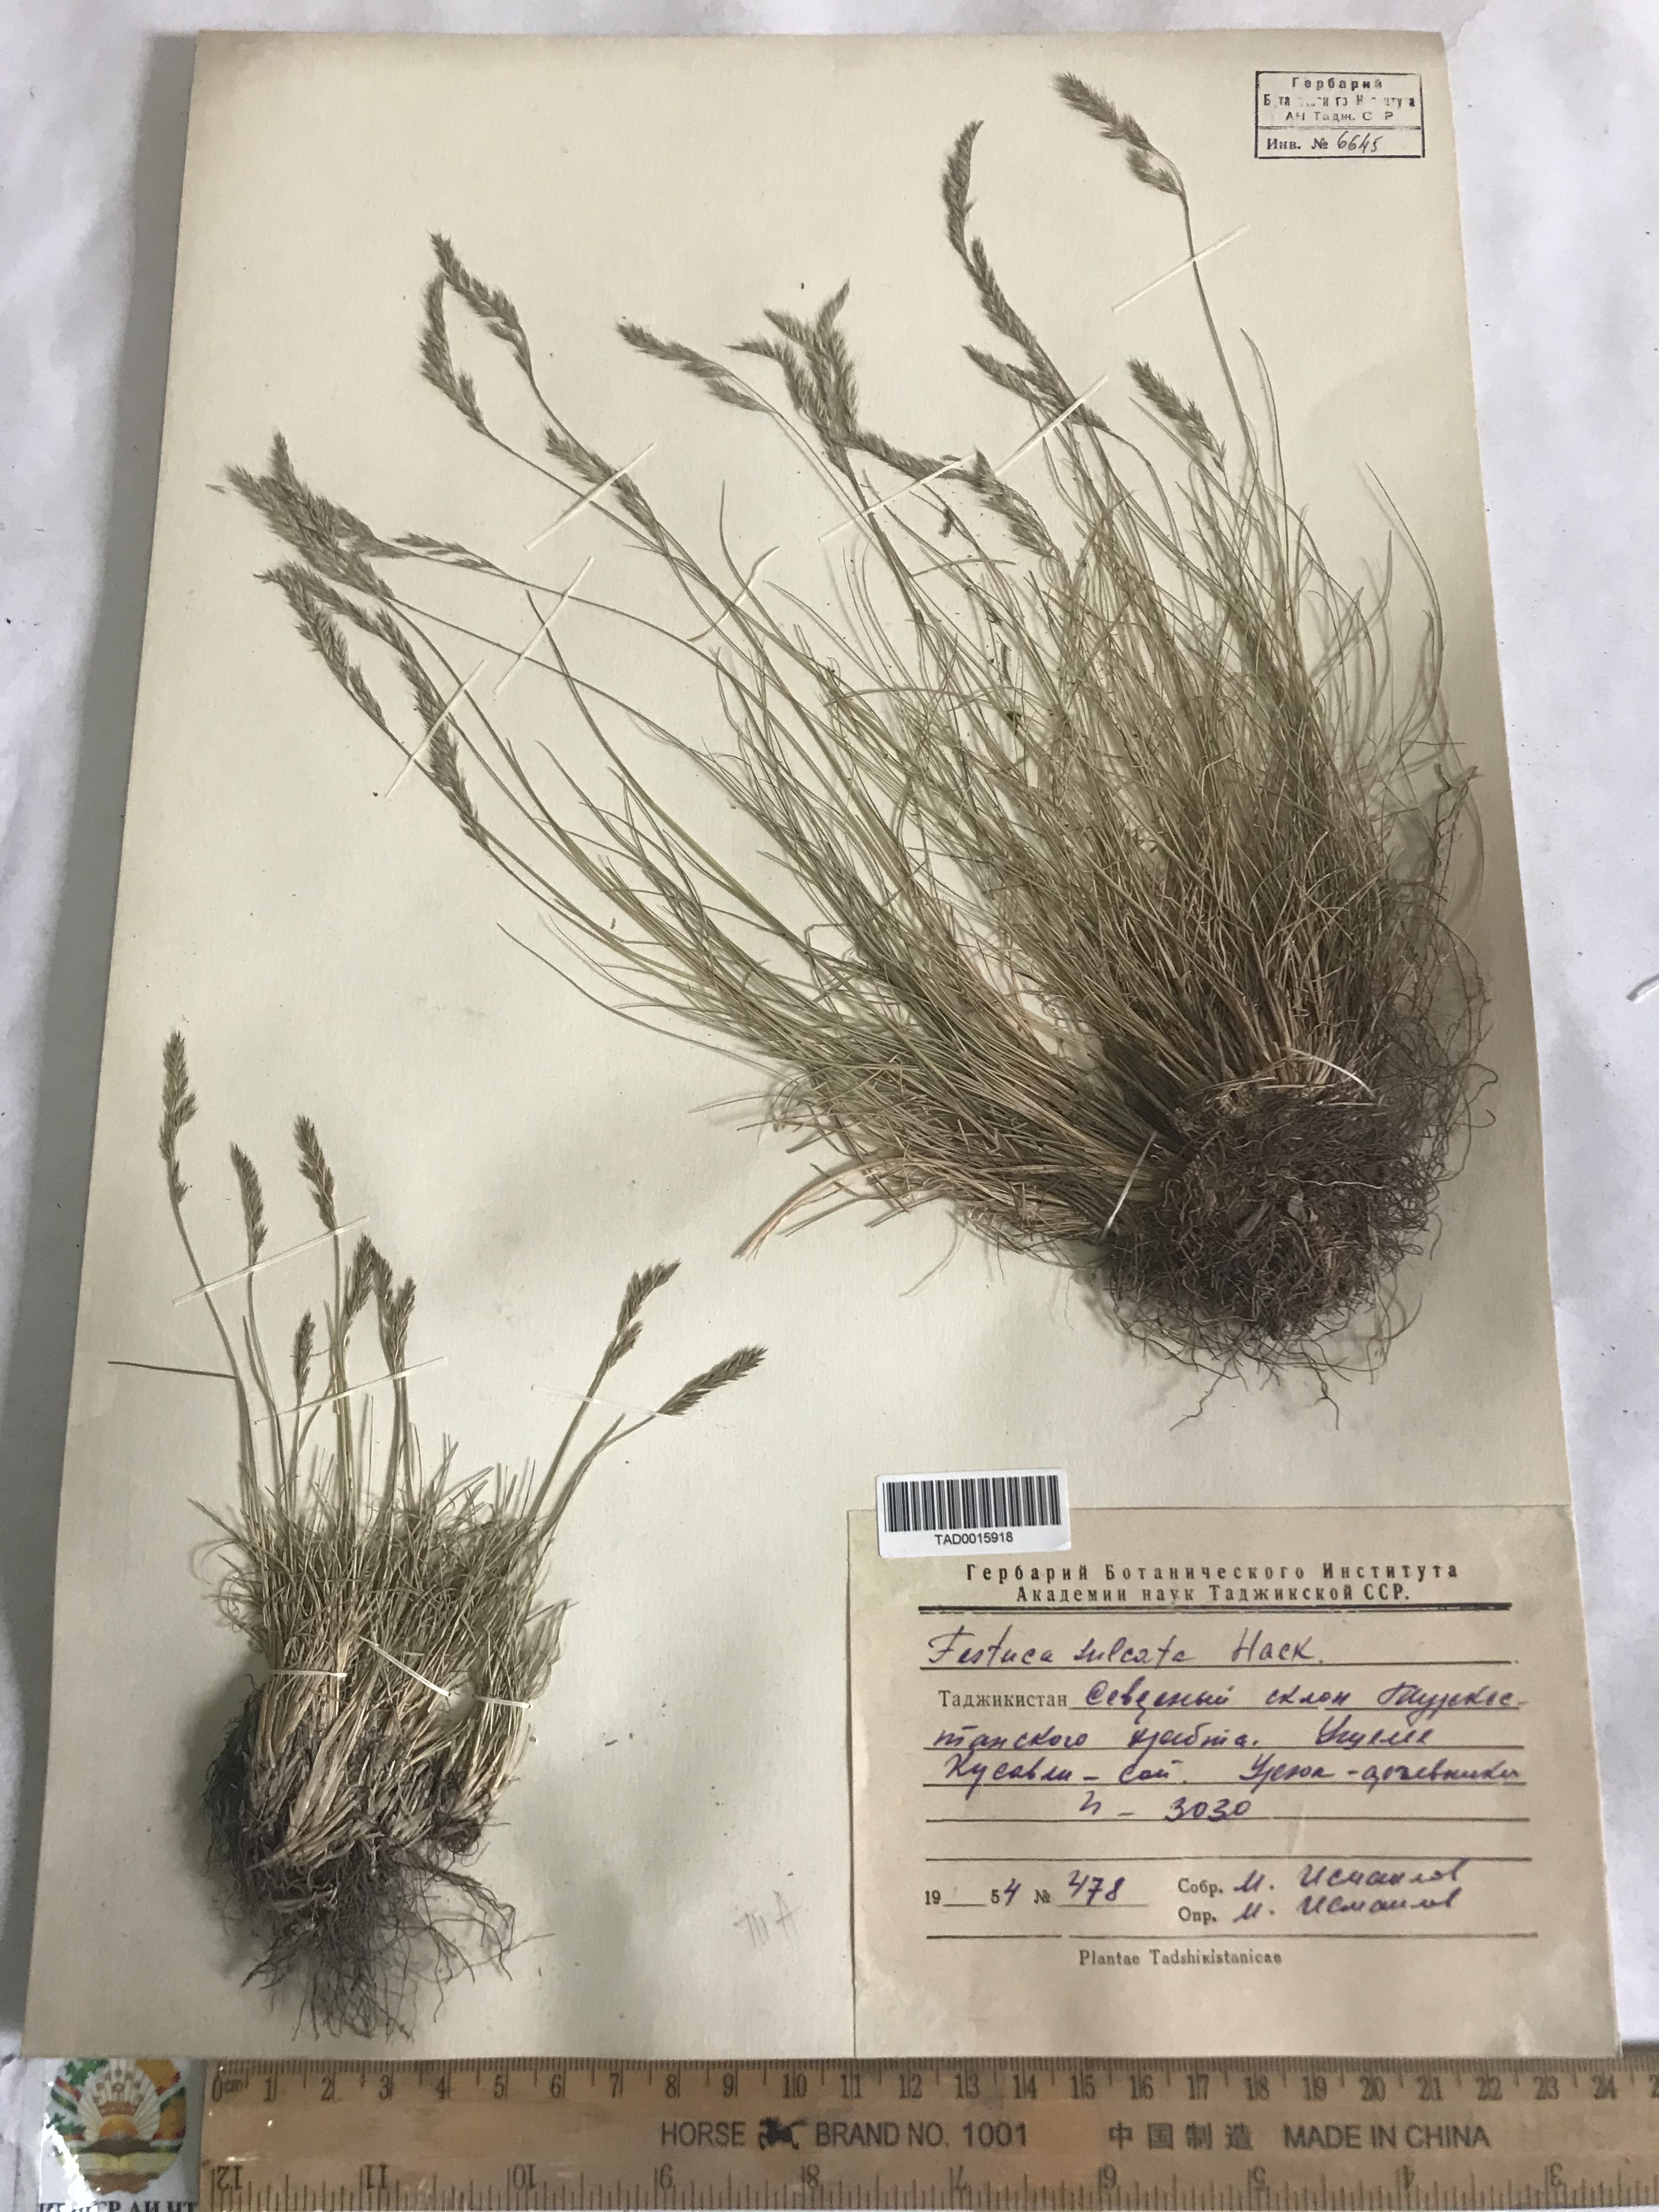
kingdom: Plantae
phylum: Tracheophyta
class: Liliopsida
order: Poales
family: Poaceae
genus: Festuca
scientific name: Festuca sulcata
